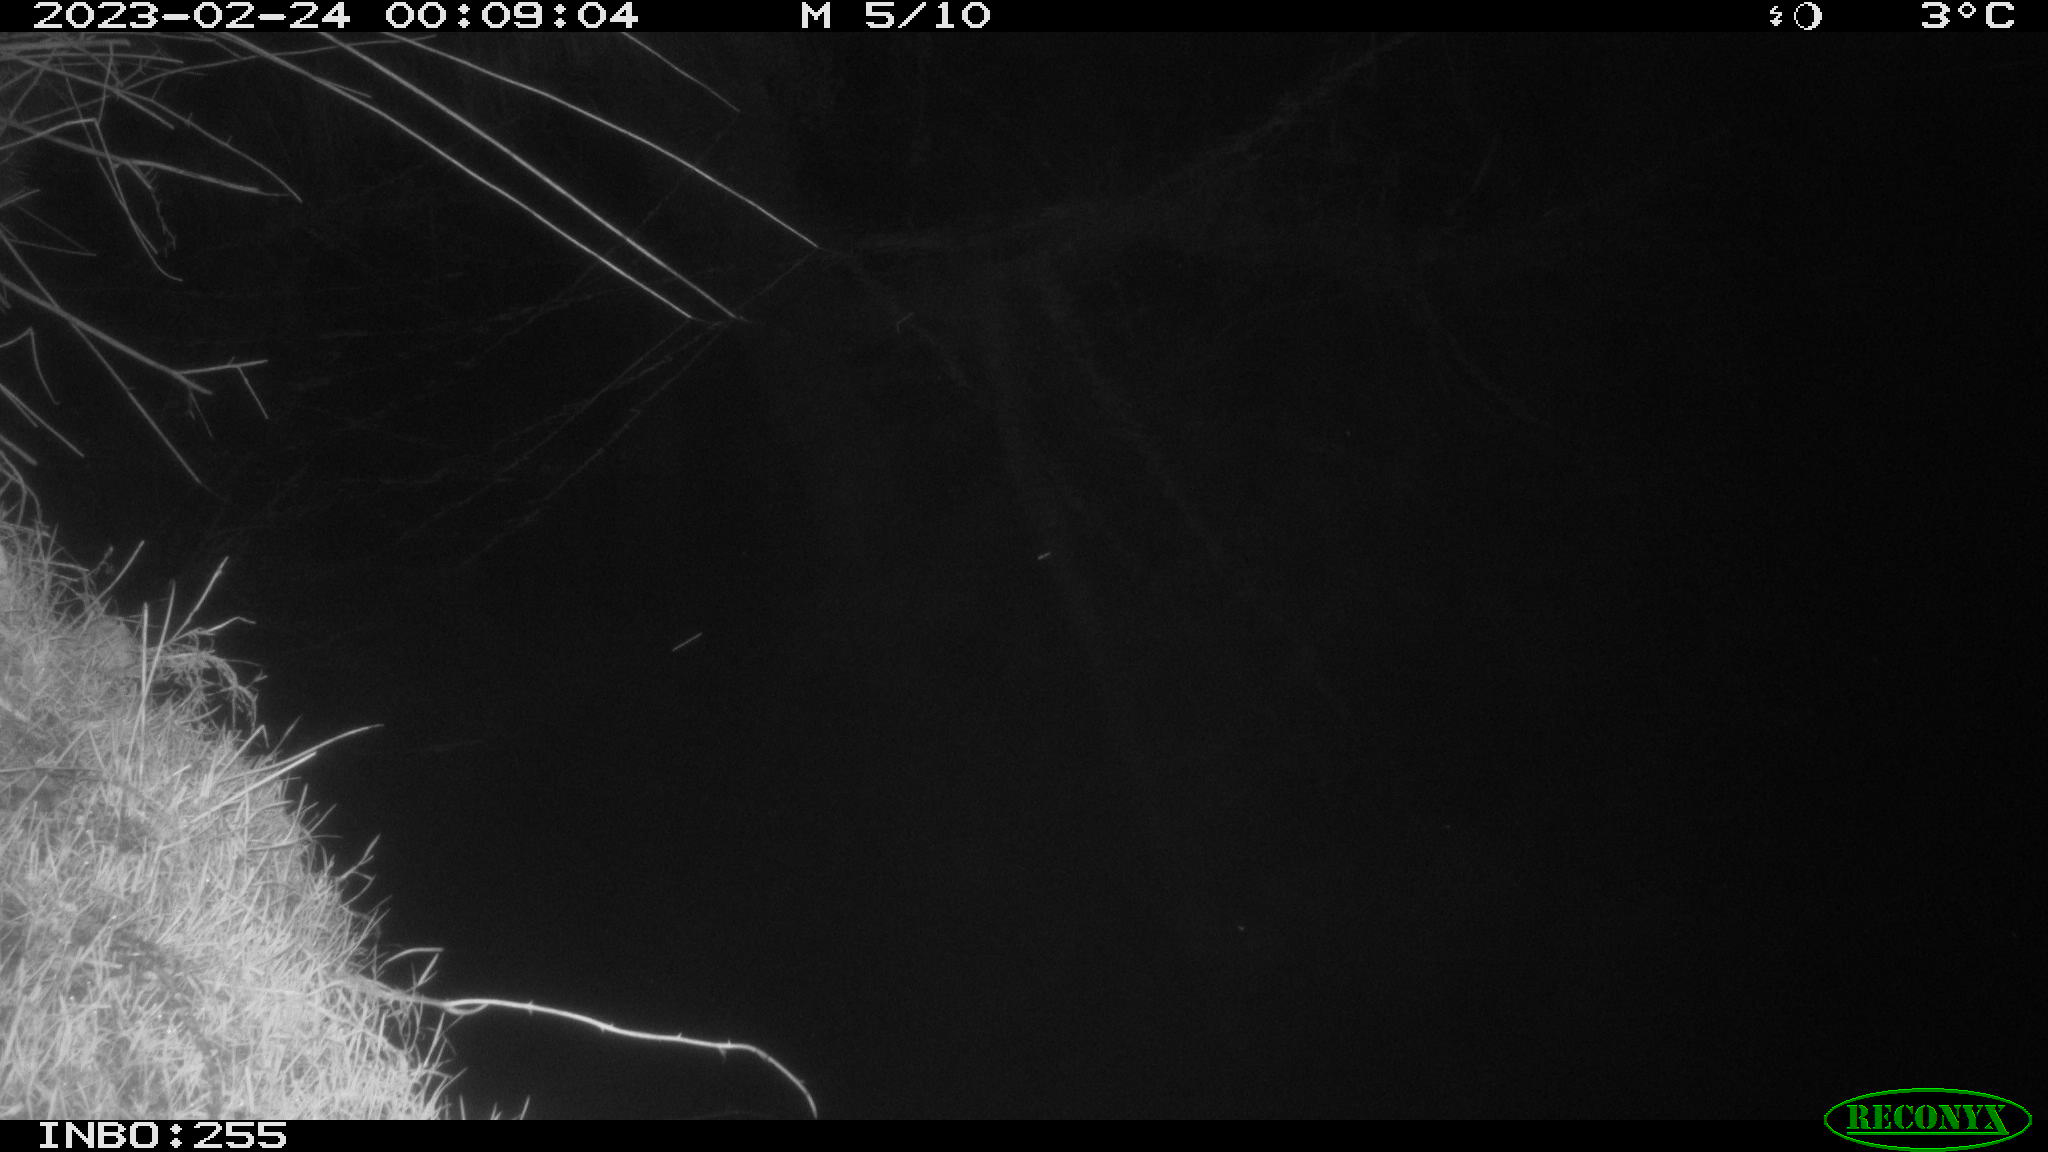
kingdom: Animalia
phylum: Chordata
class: Mammalia
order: Carnivora
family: Mustelidae
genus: Martes
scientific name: Martes foina
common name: Beech marten
